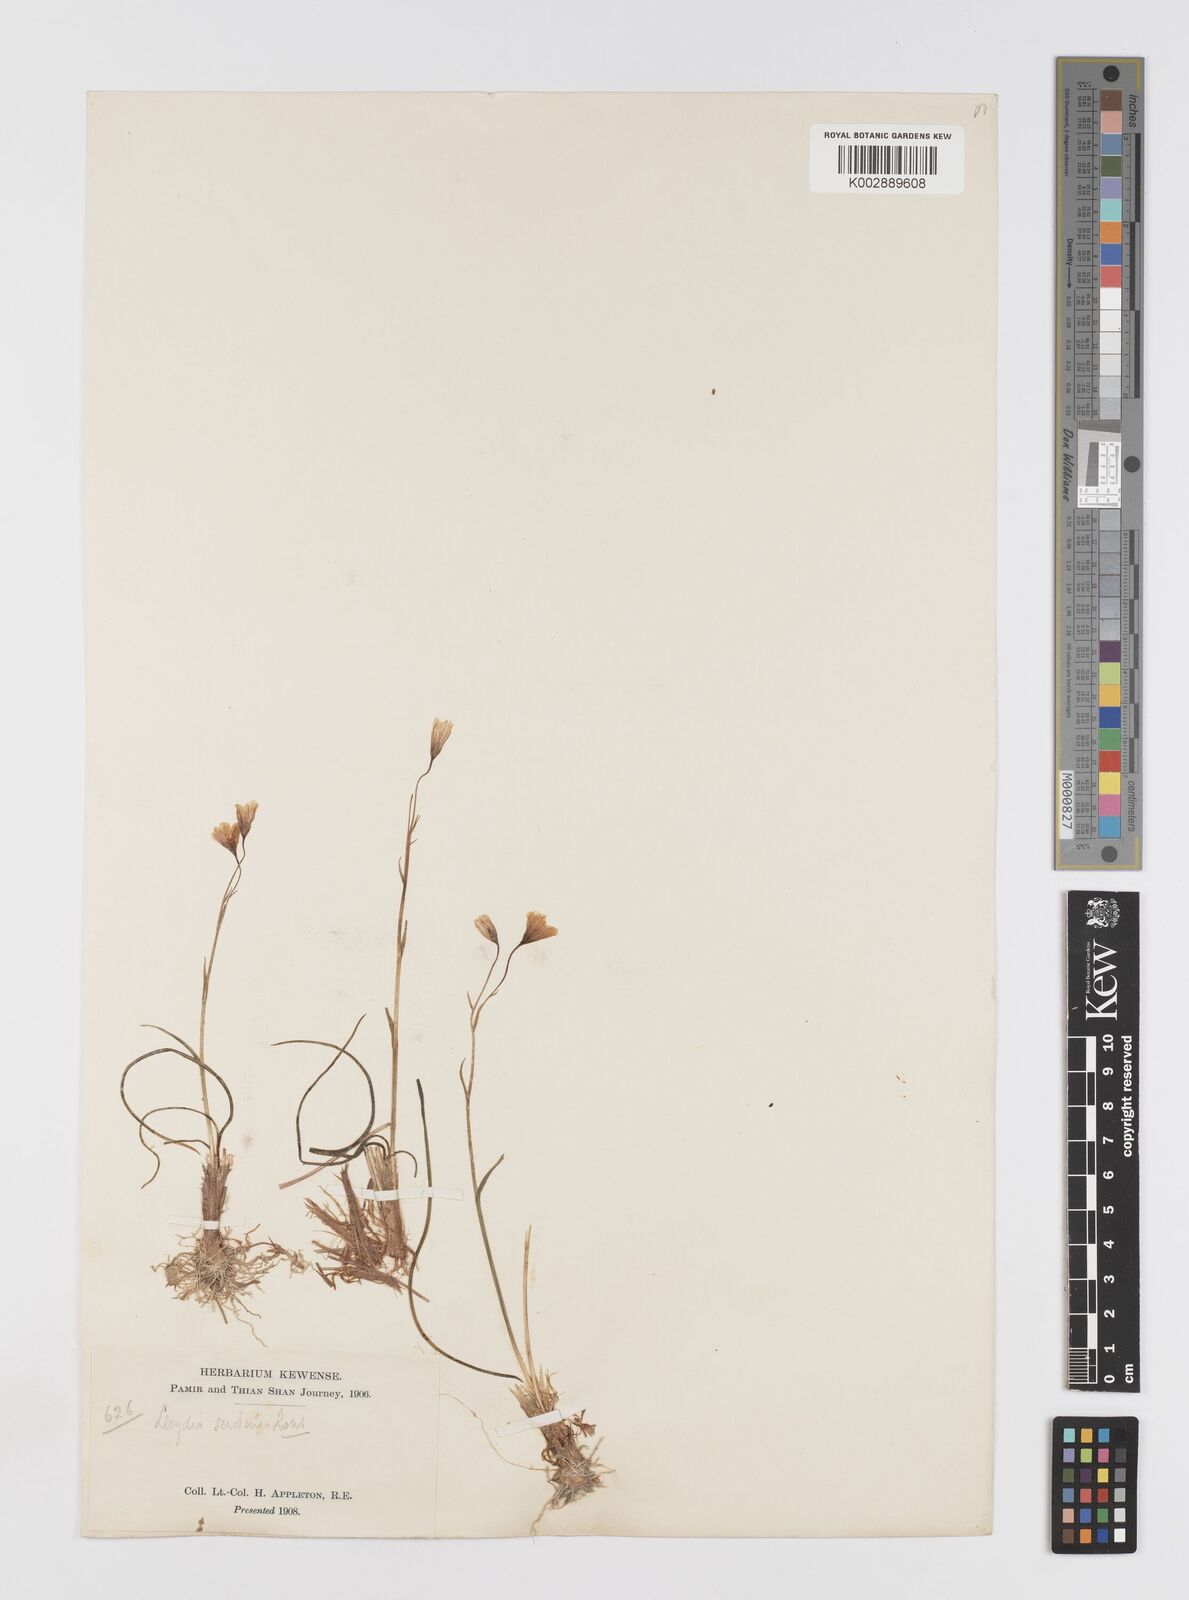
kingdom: Plantae
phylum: Tracheophyta
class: Liliopsida
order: Liliales
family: Liliaceae
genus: Gagea
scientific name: Gagea serotina
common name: Snowdon lily
